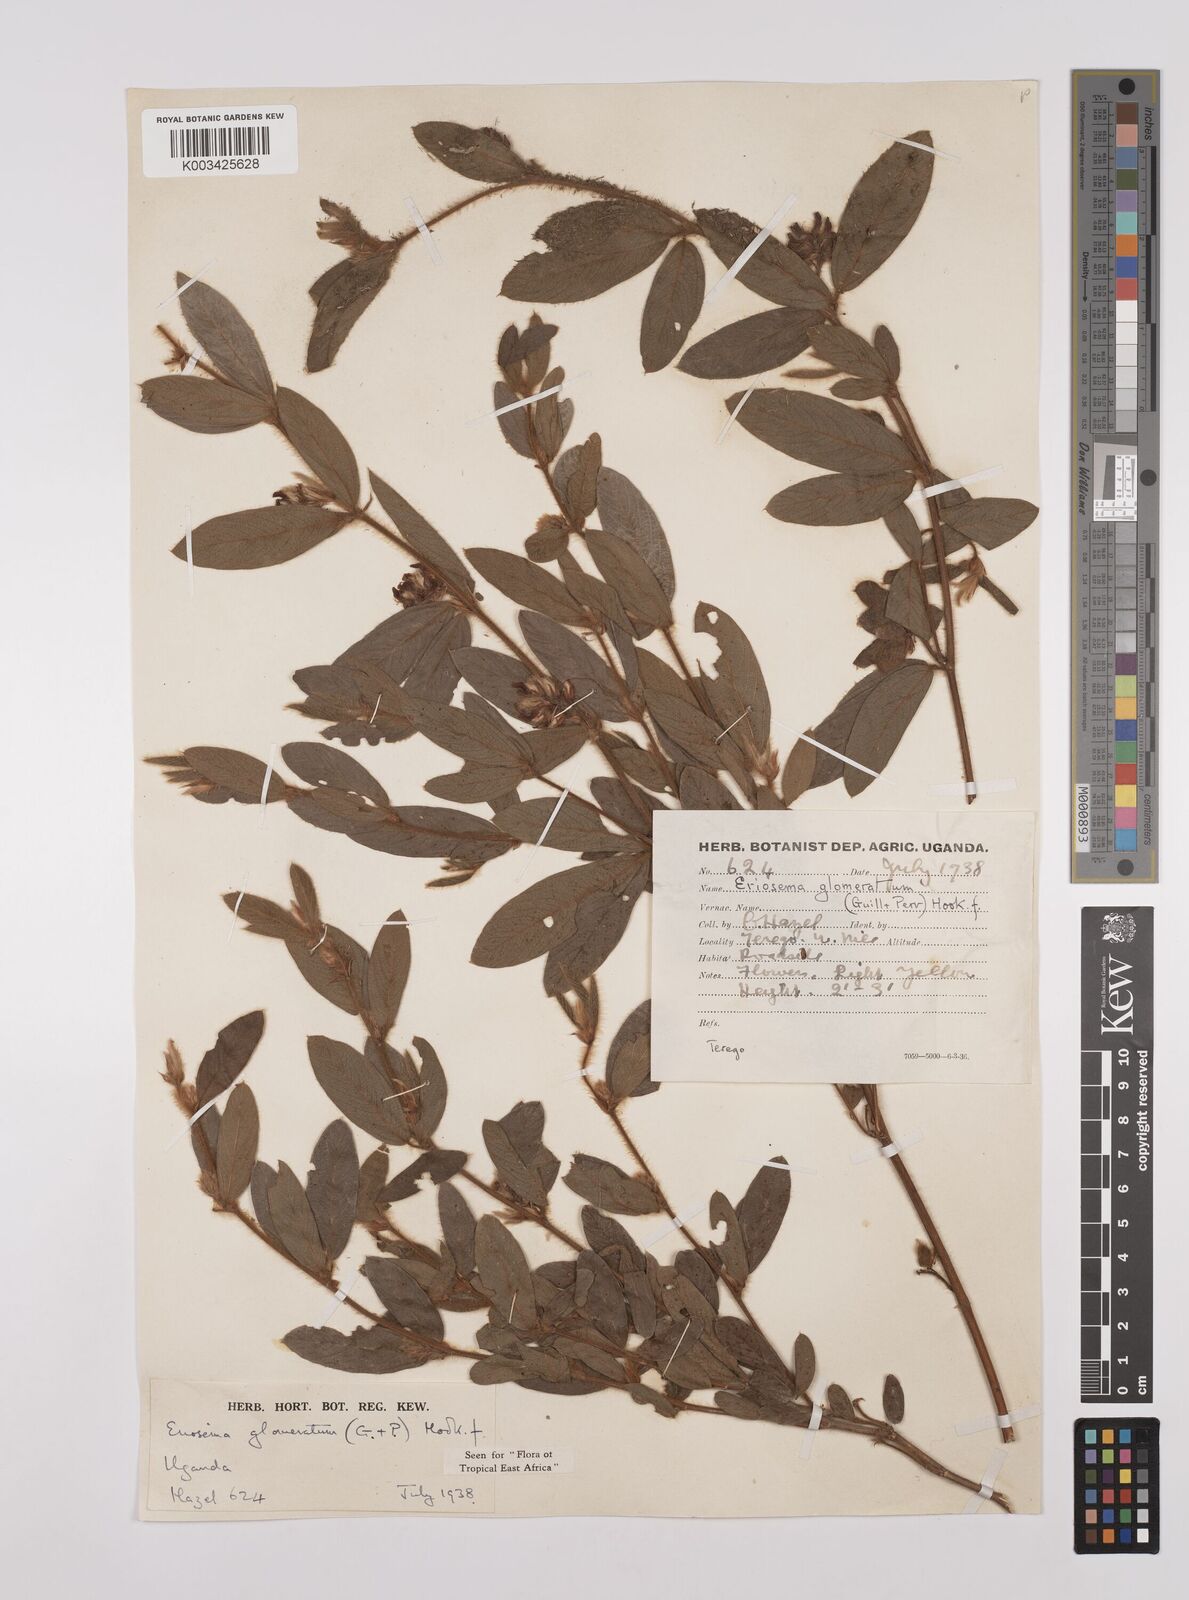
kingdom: Plantae
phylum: Tracheophyta
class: Magnoliopsida
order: Fabales
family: Fabaceae
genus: Eriosema
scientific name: Eriosema glomeratum
